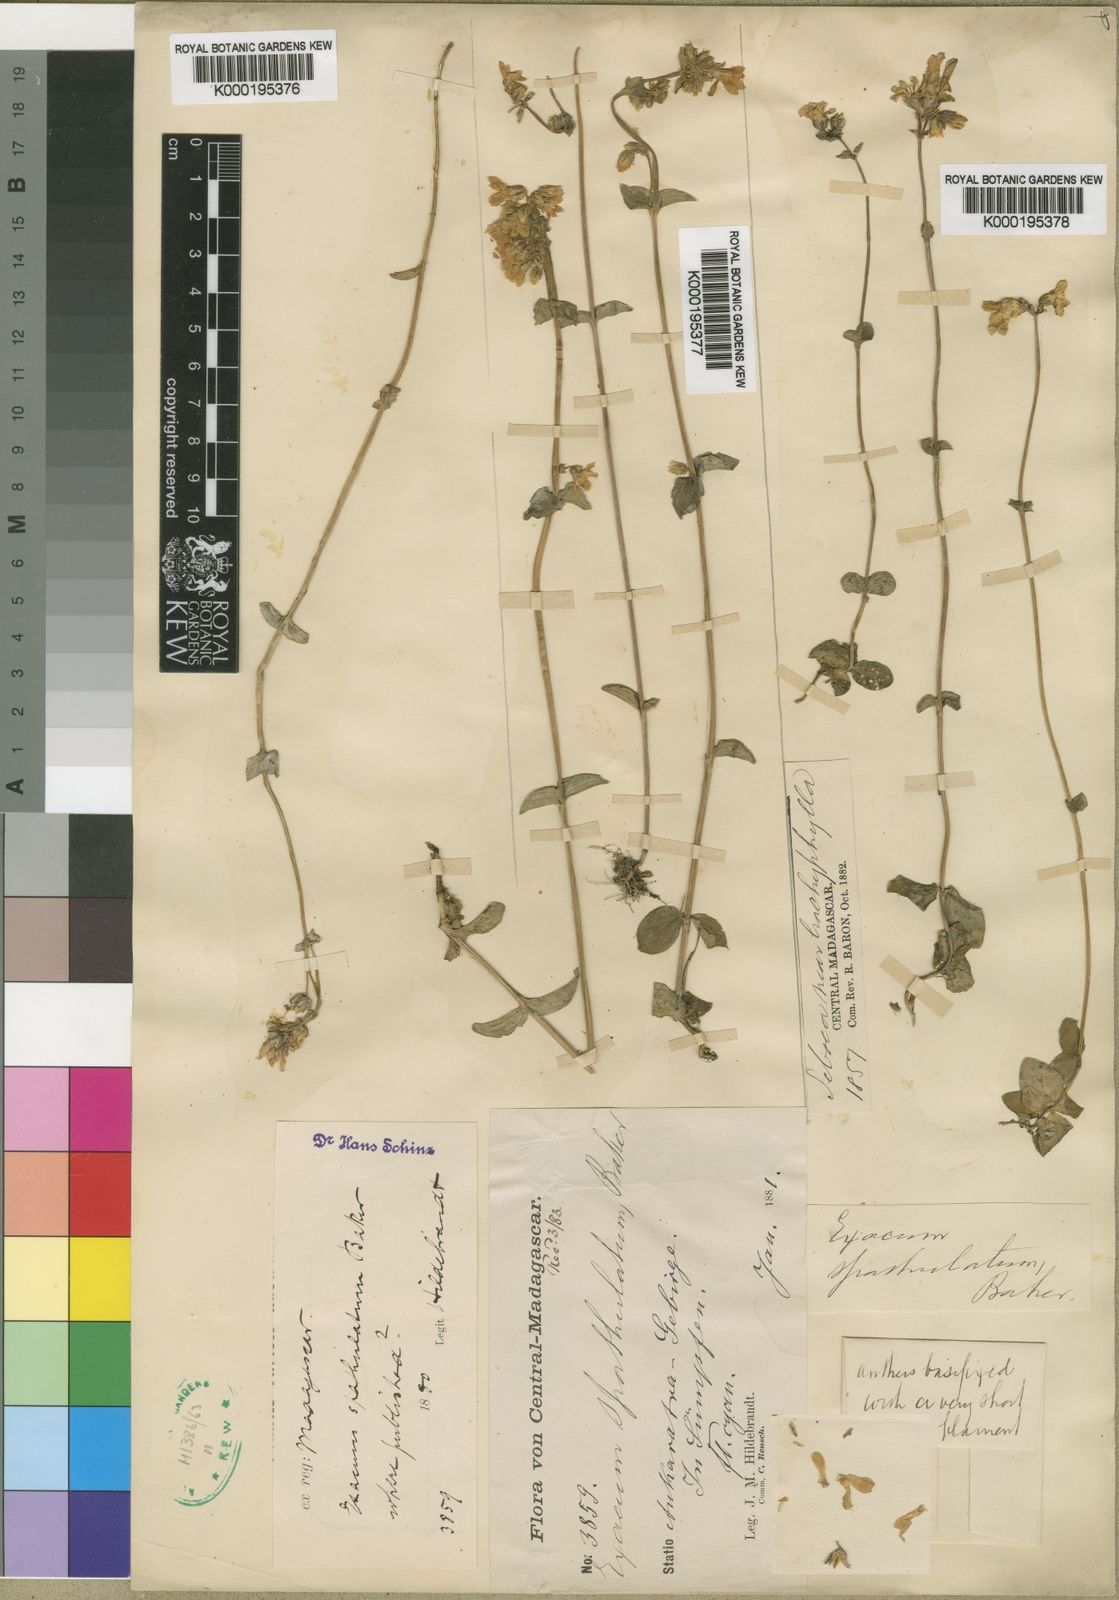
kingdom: Plantae
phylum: Tracheophyta
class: Magnoliopsida
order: Gentianales
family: Gentianaceae
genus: Exacum
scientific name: Exacum spathulatum
